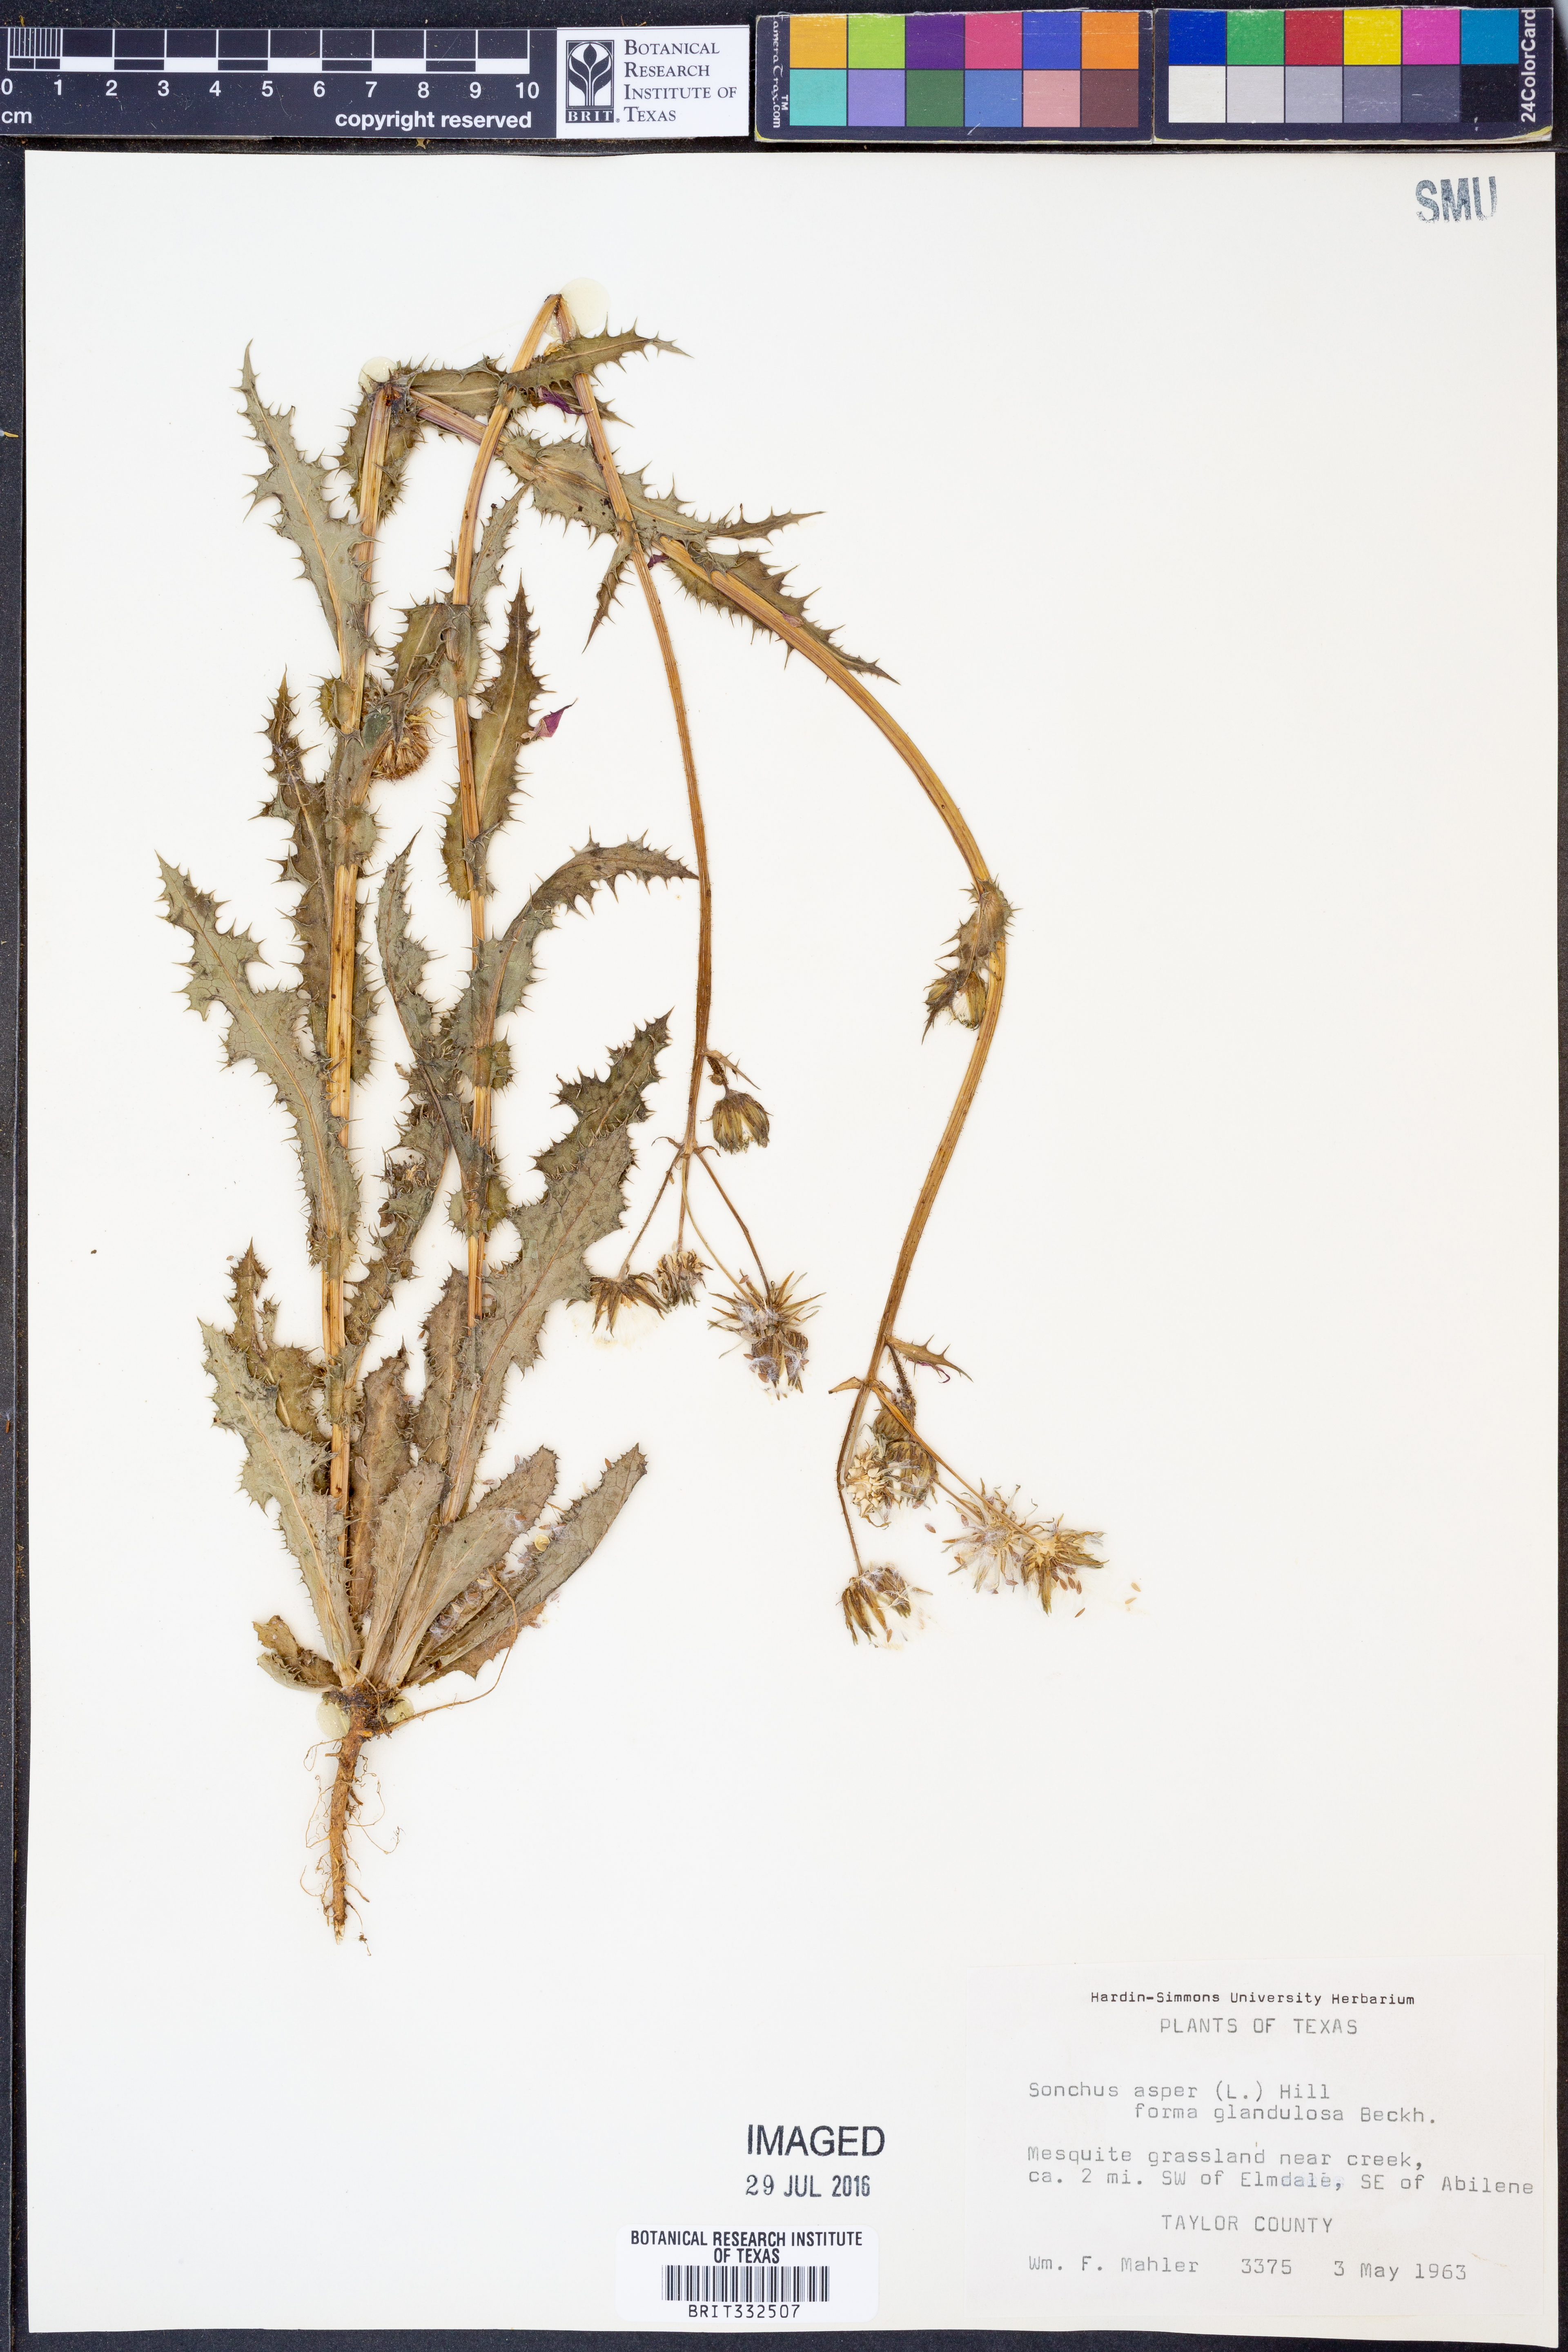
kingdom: Plantae
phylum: Tracheophyta
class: Magnoliopsida
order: Asterales
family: Asteraceae
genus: Sonchus
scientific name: Sonchus asper
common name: Prickly sow-thistle
